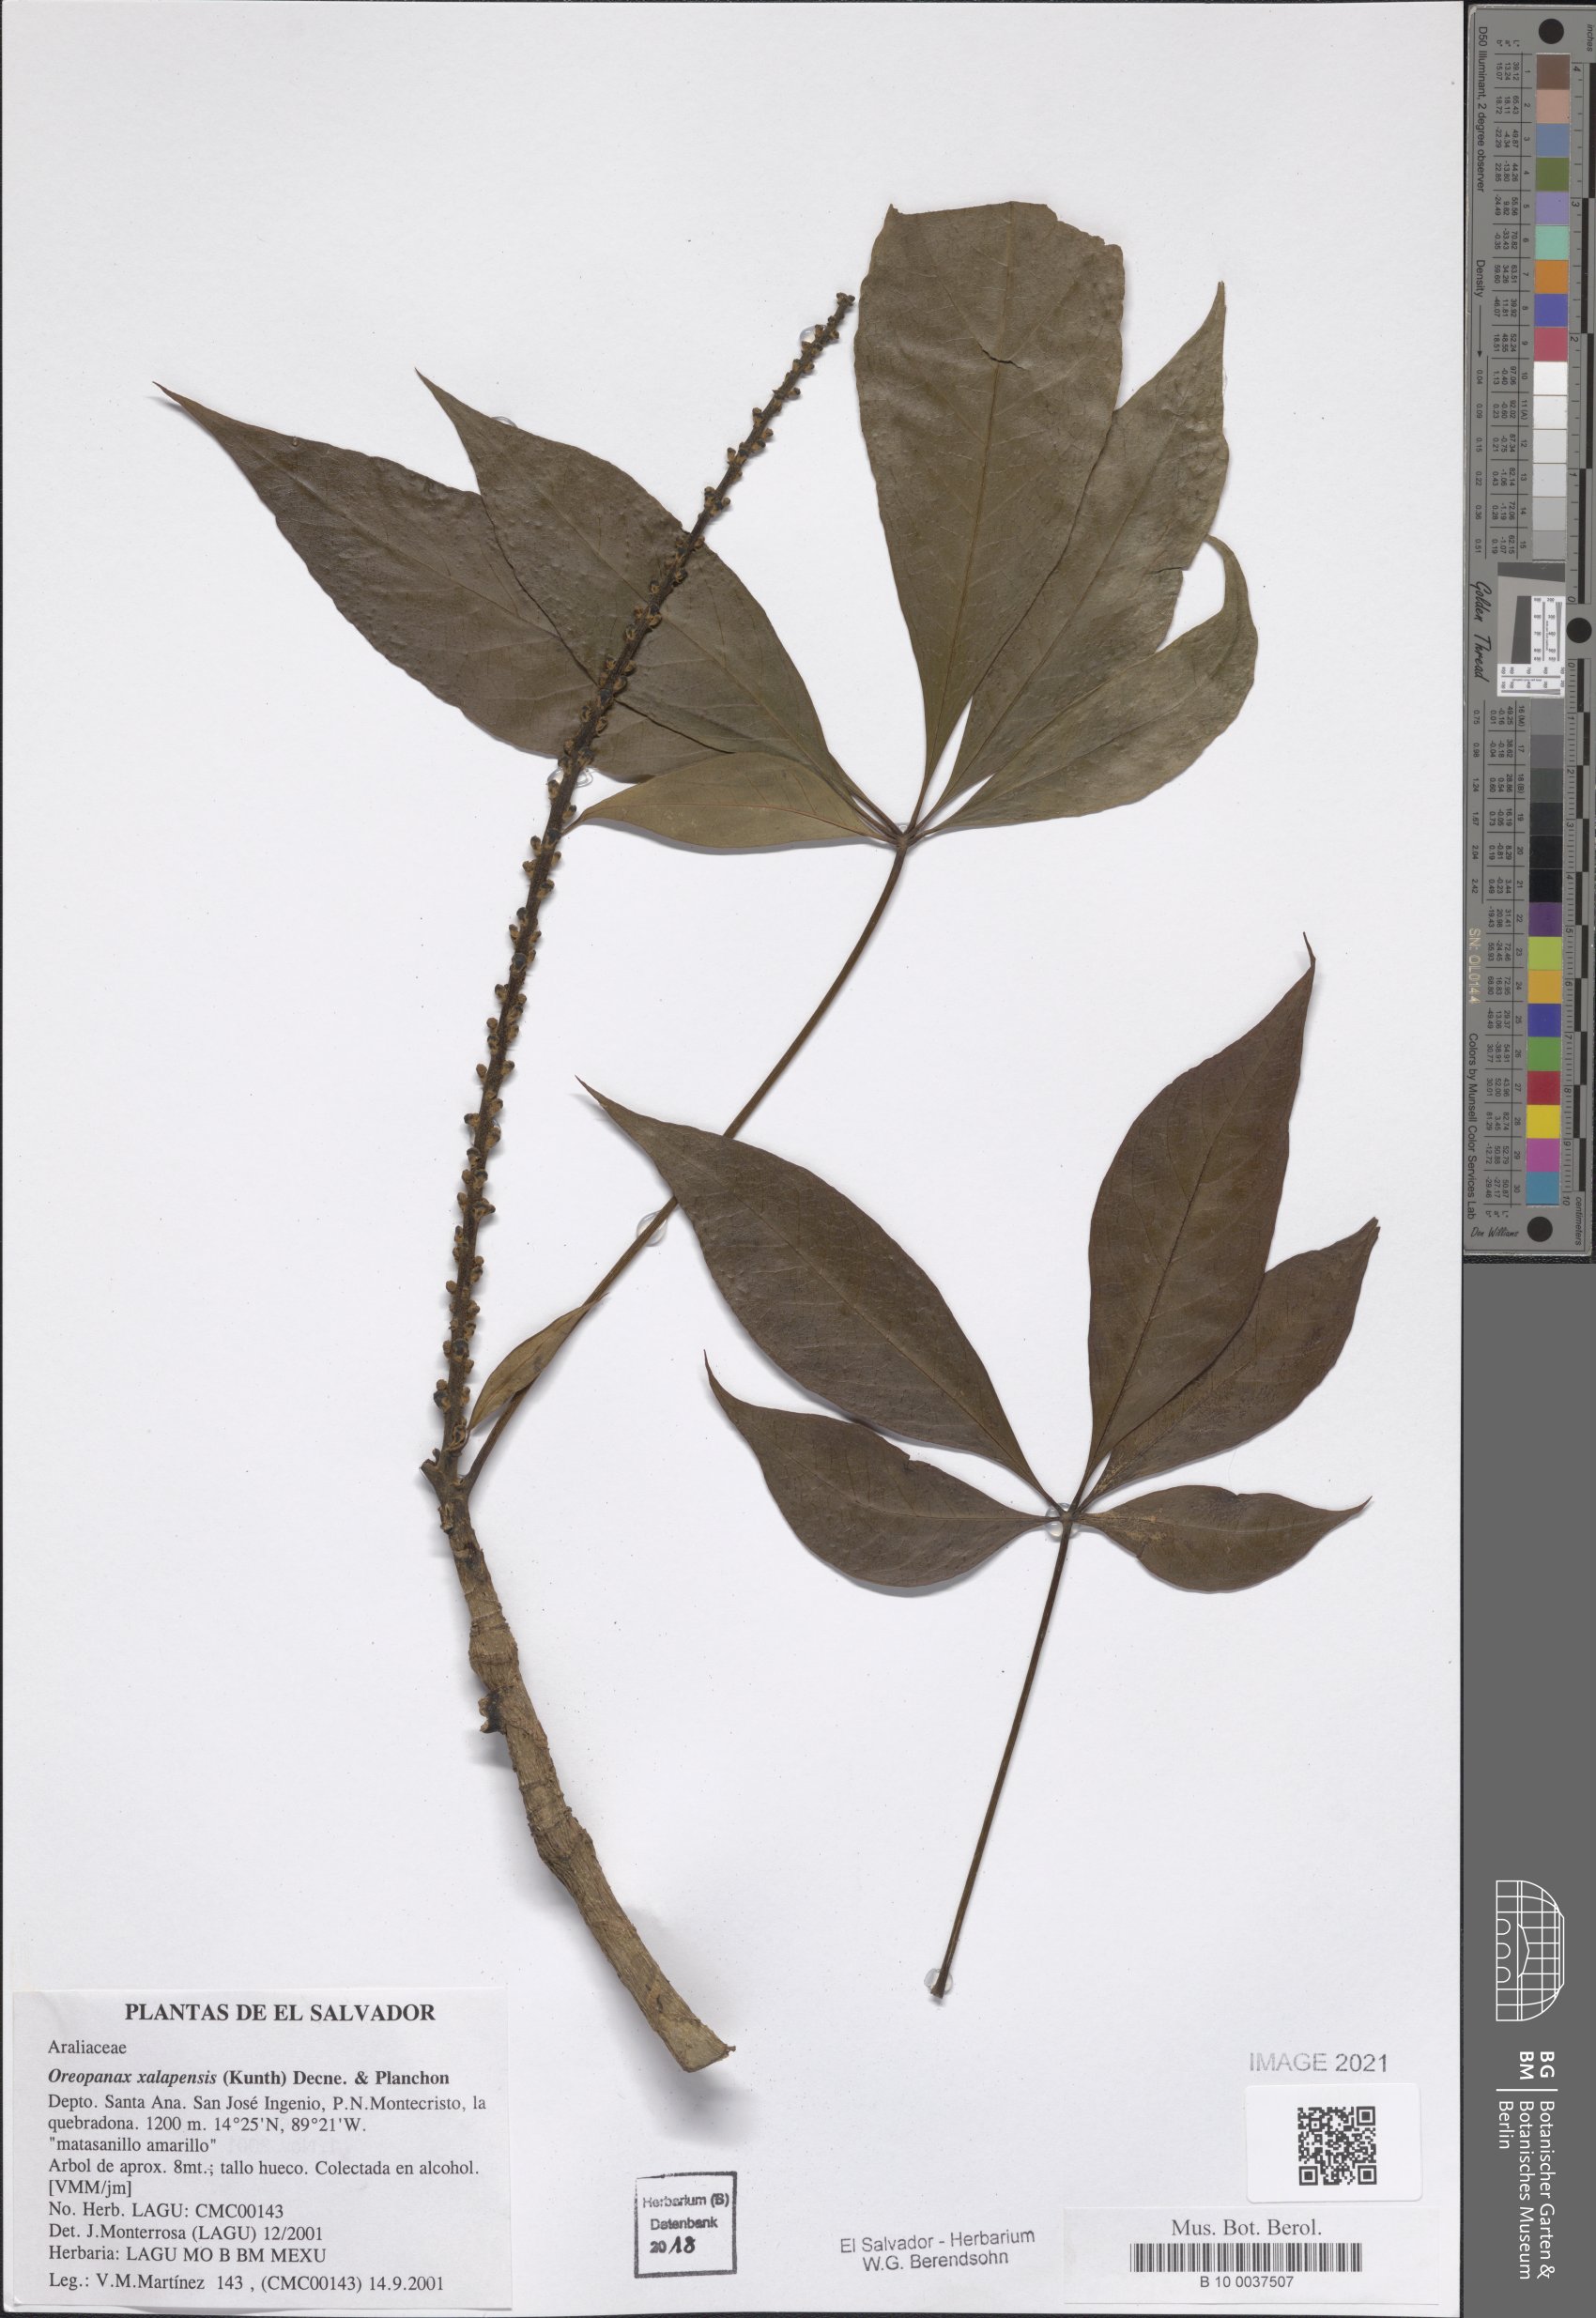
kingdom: Plantae
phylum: Tracheophyta
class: Magnoliopsida
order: Apiales
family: Araliaceae
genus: Oreopanax
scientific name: Oreopanax xalapensis
